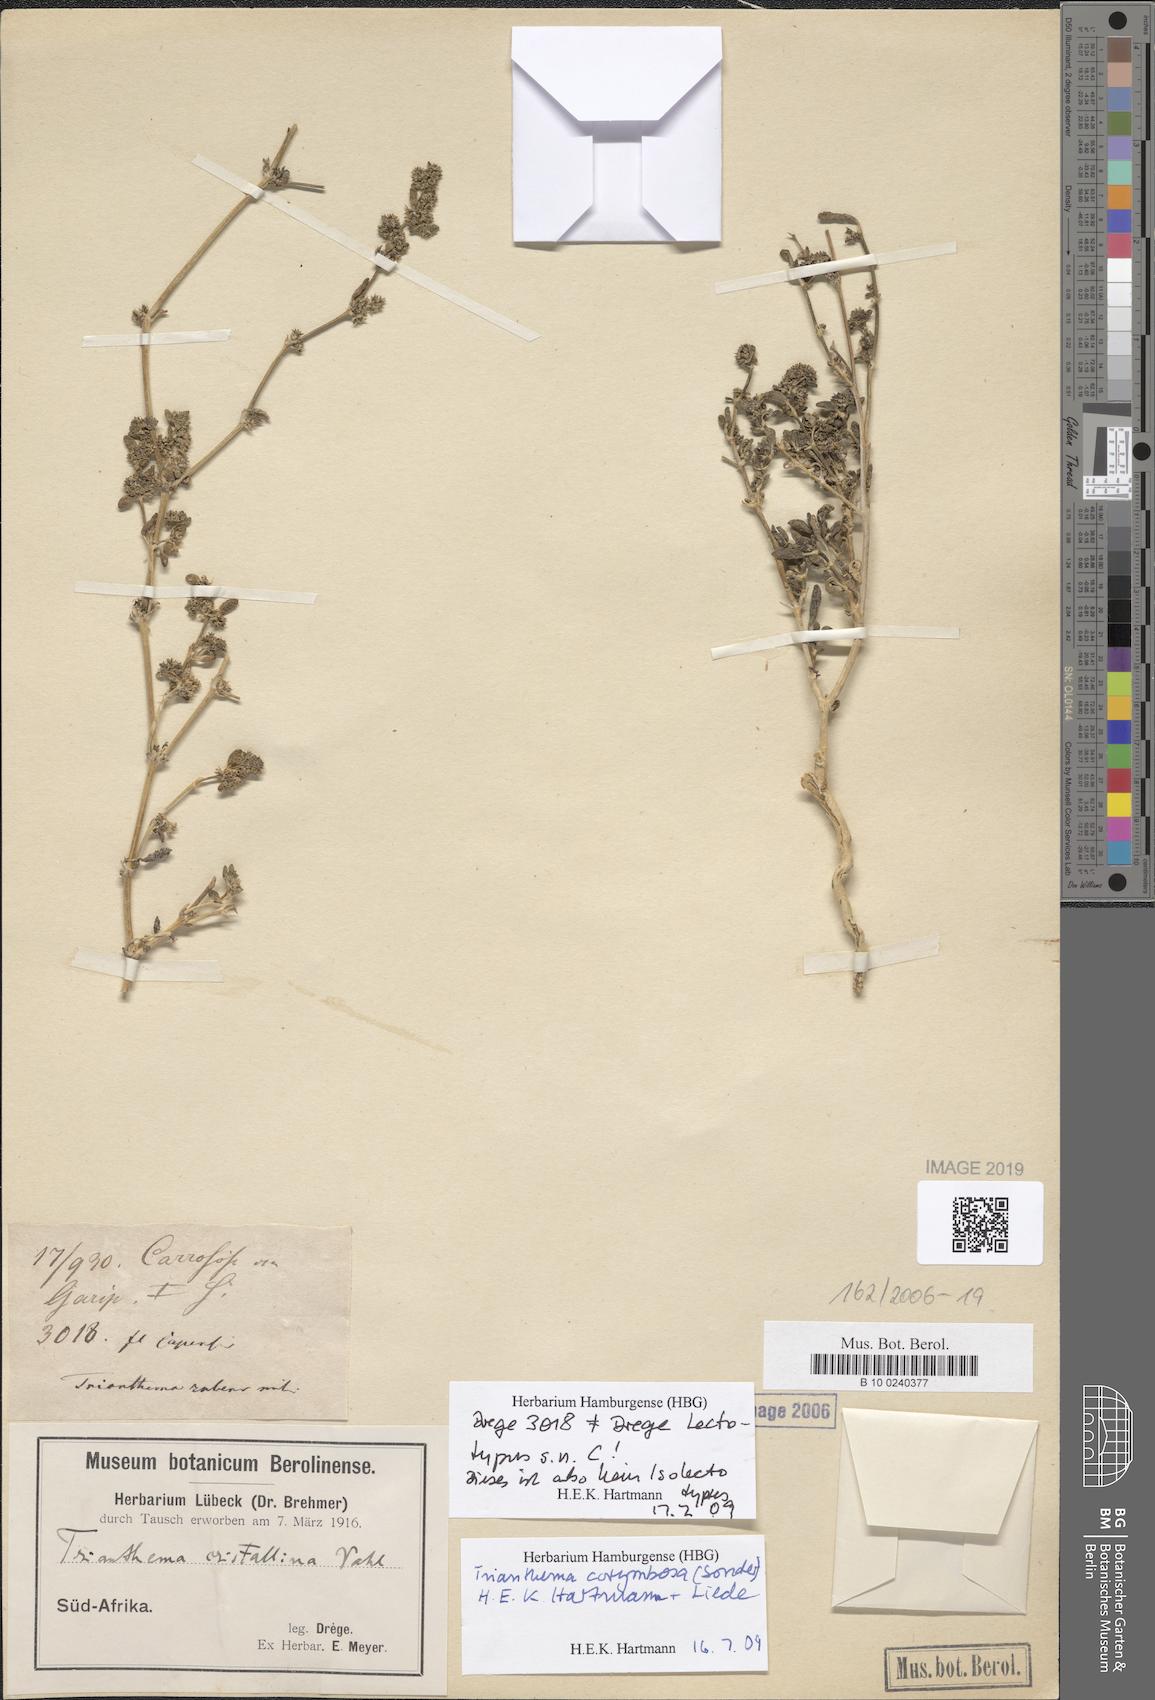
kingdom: Plantae
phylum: Tracheophyta
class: Magnoliopsida
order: Caryophyllales
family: Aizoaceae
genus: Trianthema
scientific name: Trianthema crystallinum
